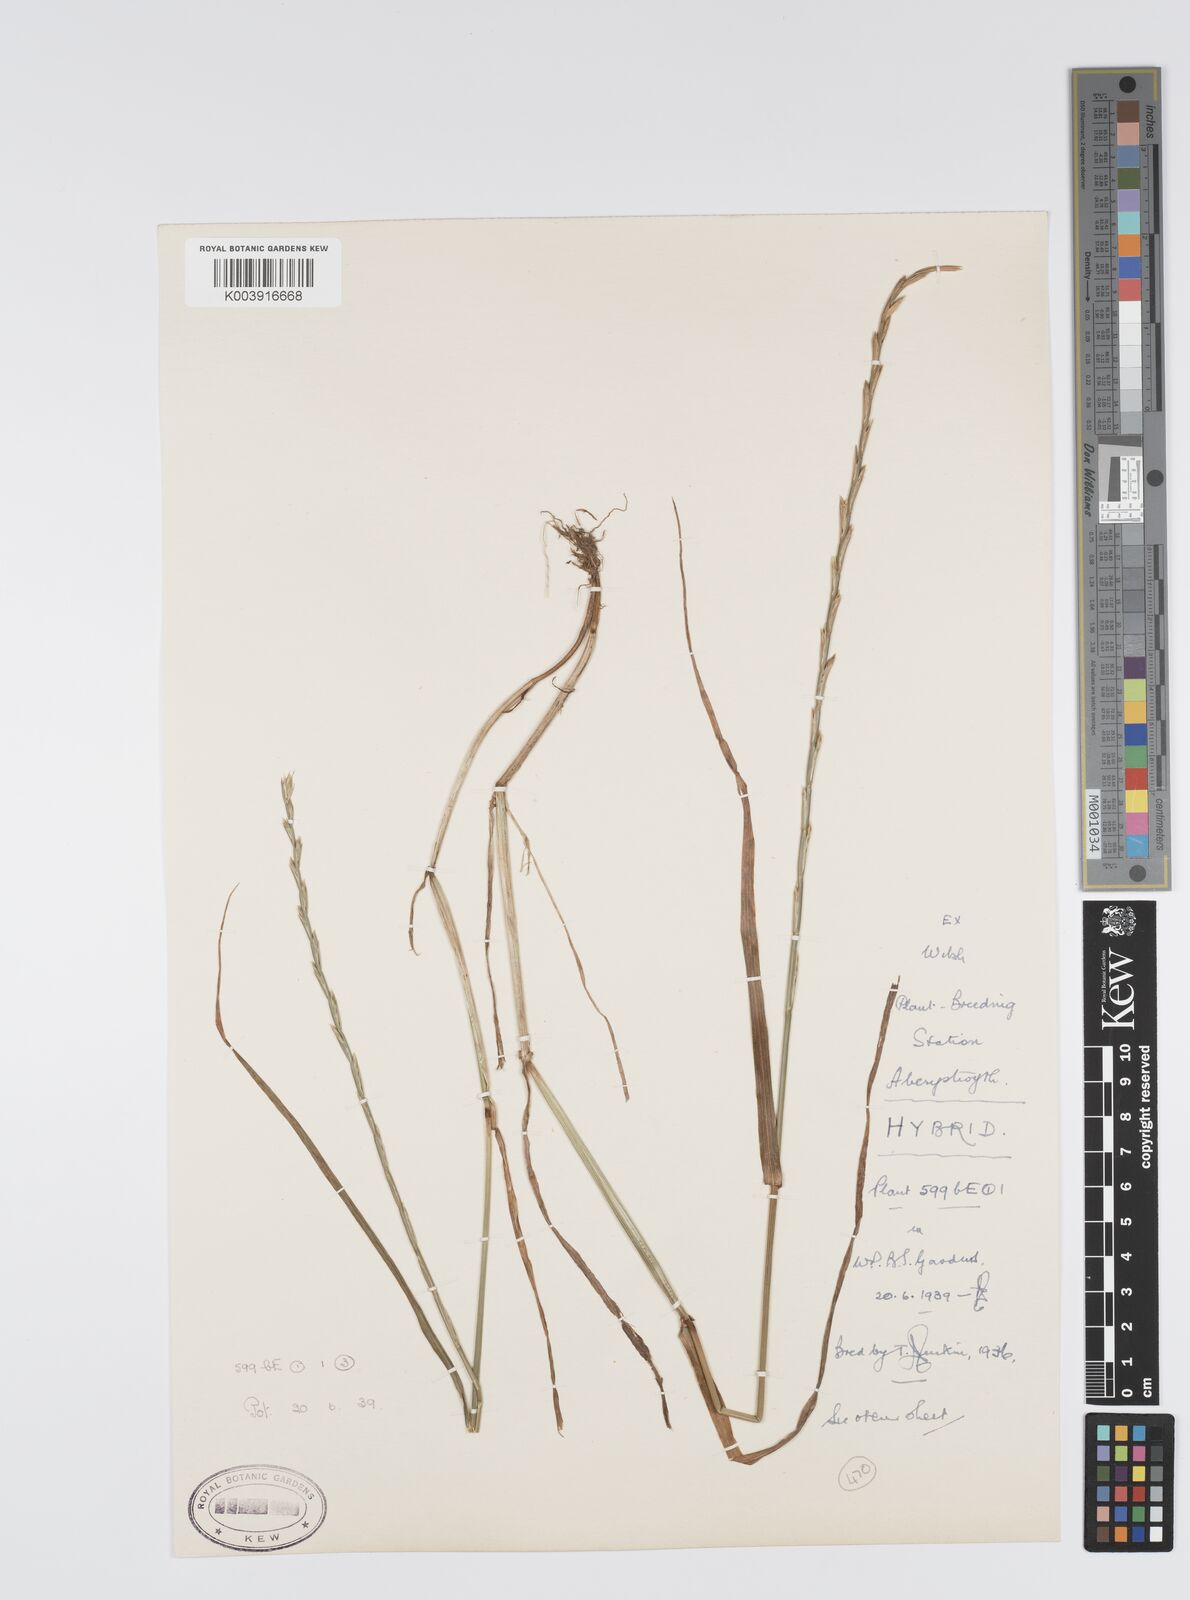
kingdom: Plantae
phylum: Tracheophyta
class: Liliopsida
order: Poales
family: Poaceae
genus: Lolium
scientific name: Lolium perenne
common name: Perennial ryegrass
